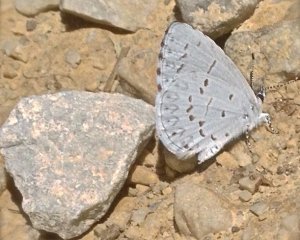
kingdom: Animalia
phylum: Arthropoda
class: Insecta
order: Lepidoptera
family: Lycaenidae
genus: Cyaniris
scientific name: Cyaniris neglecta
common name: Summer Azure
